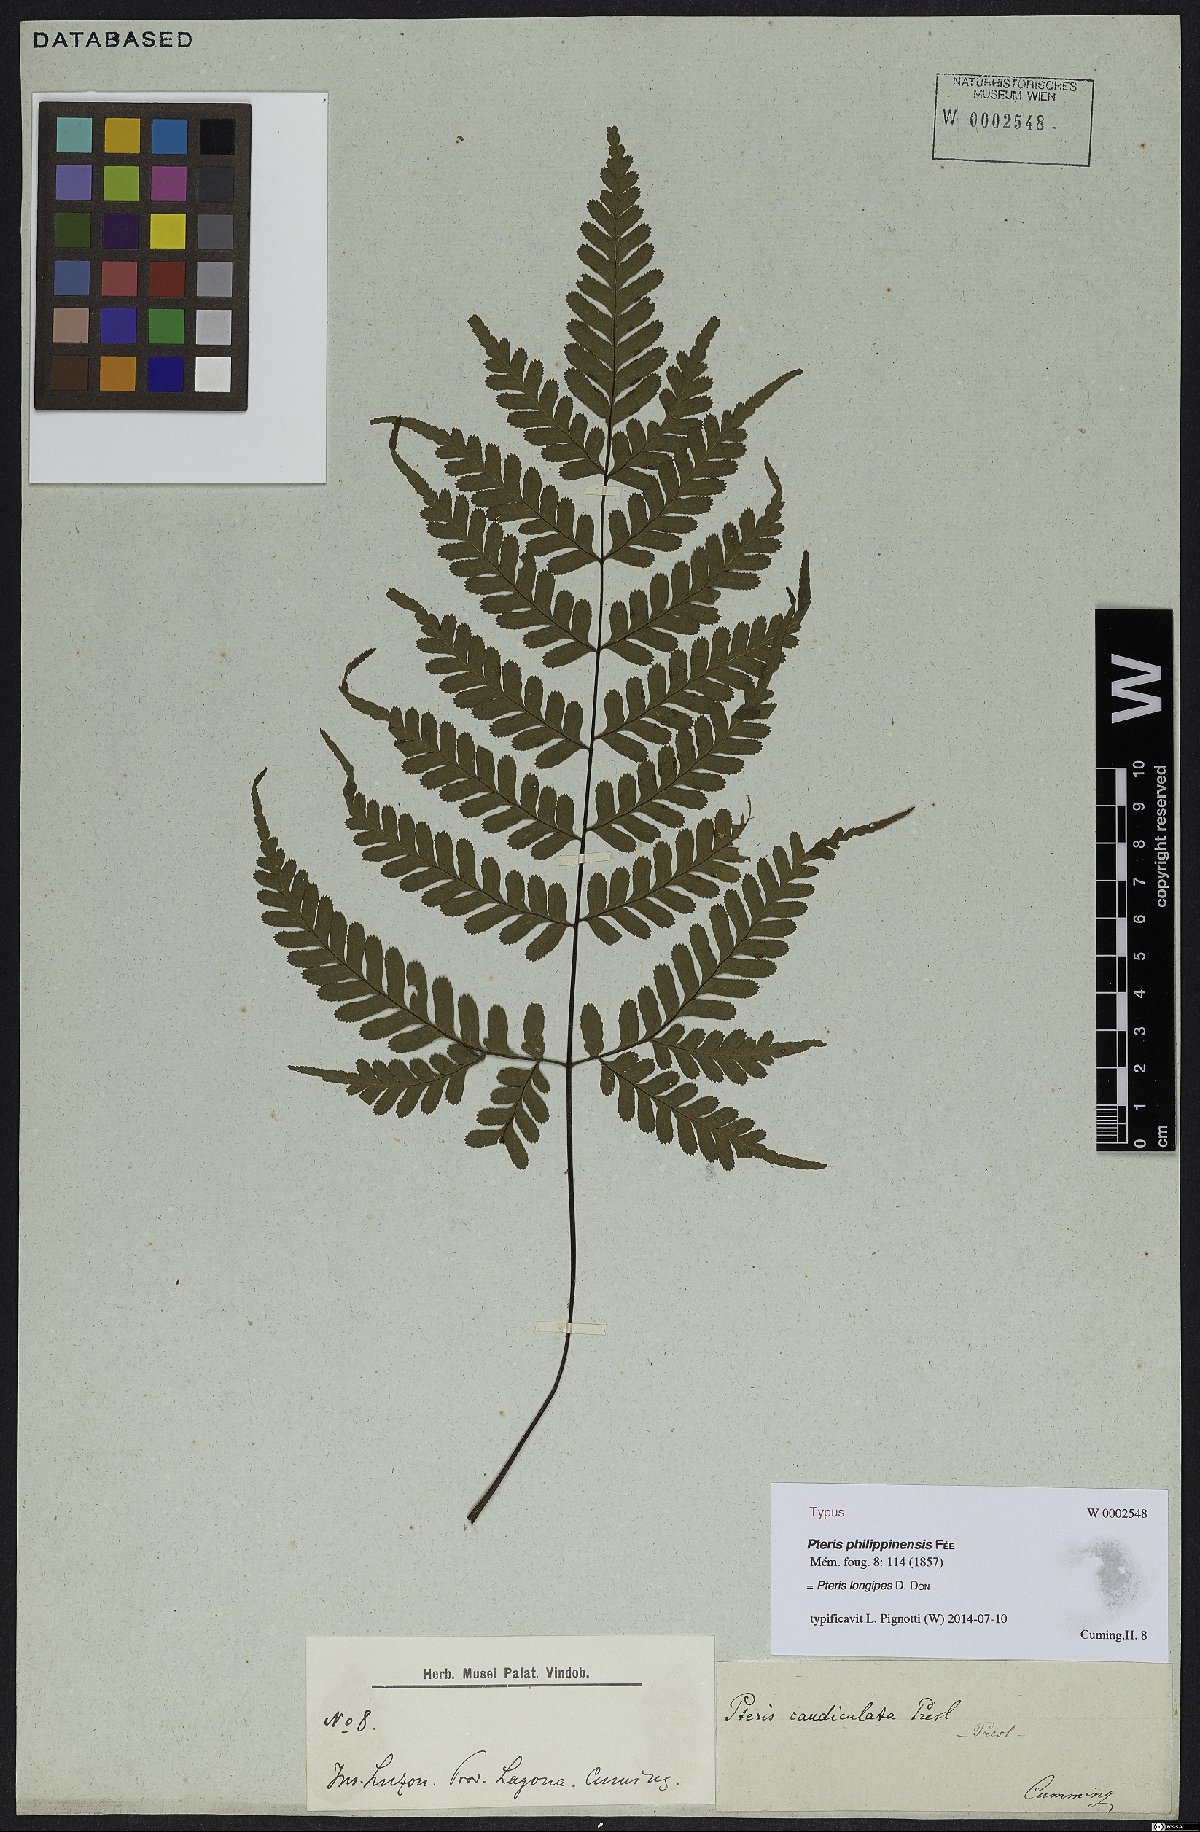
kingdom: Plantae
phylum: Tracheophyta
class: Polypodiopsida
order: Polypodiales
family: Pteridaceae
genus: Pteris
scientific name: Pteris longipes
